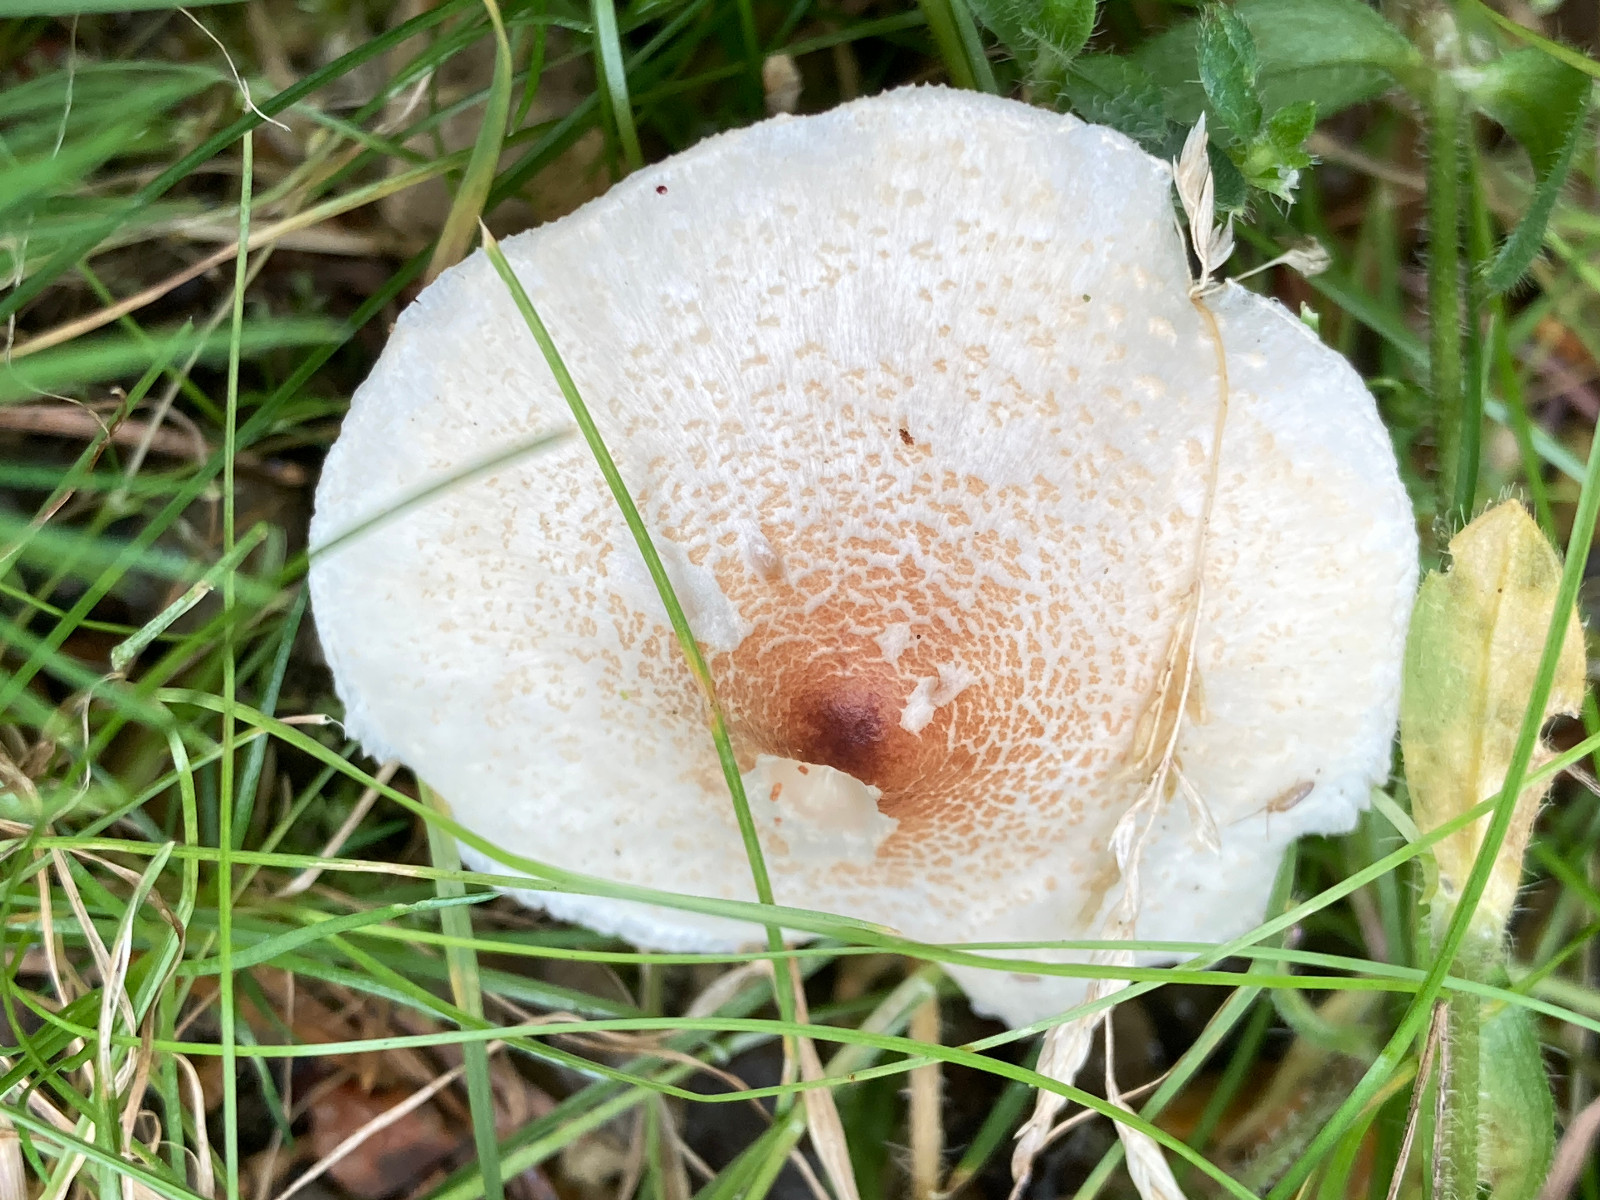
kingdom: Fungi
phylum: Basidiomycota
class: Agaricomycetes
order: Agaricales
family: Agaricaceae
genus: Lepiota
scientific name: Lepiota cristata
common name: stinkende parasolhat
